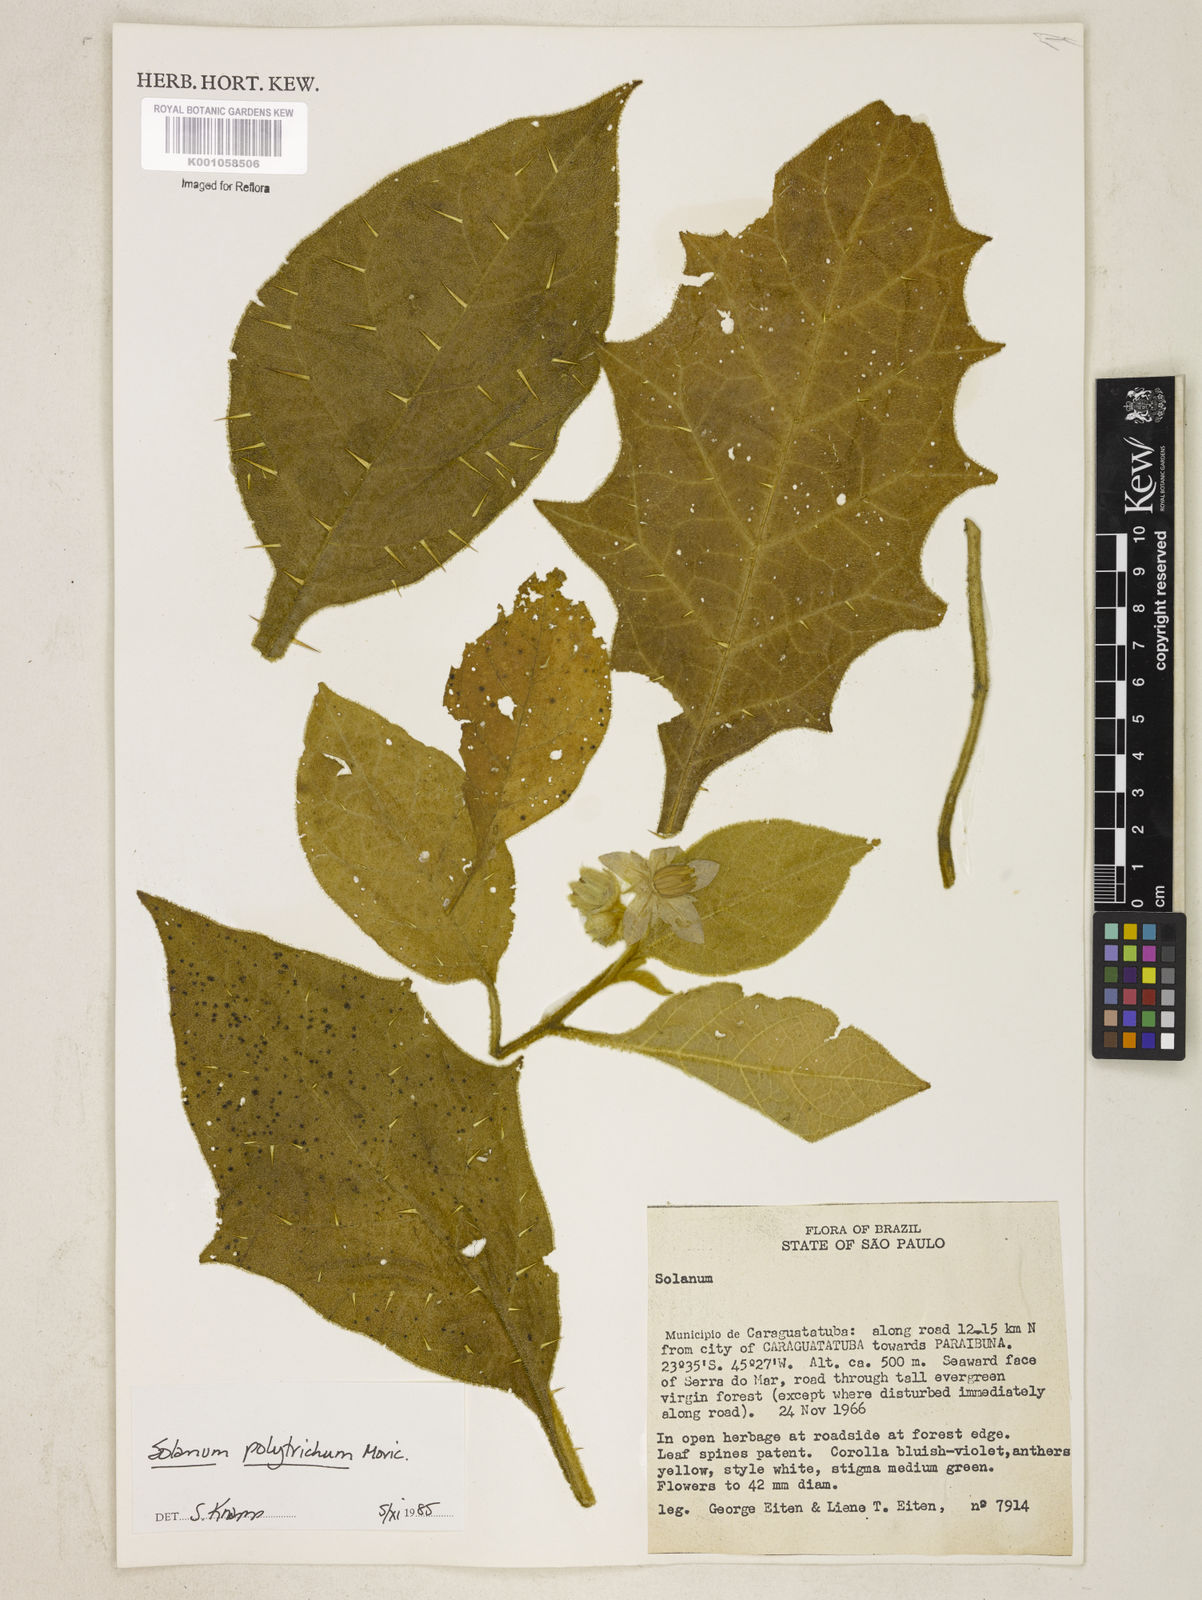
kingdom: Plantae
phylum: Tracheophyta
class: Magnoliopsida
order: Solanales
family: Solanaceae
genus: Solanum
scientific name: Solanum polytrichum
